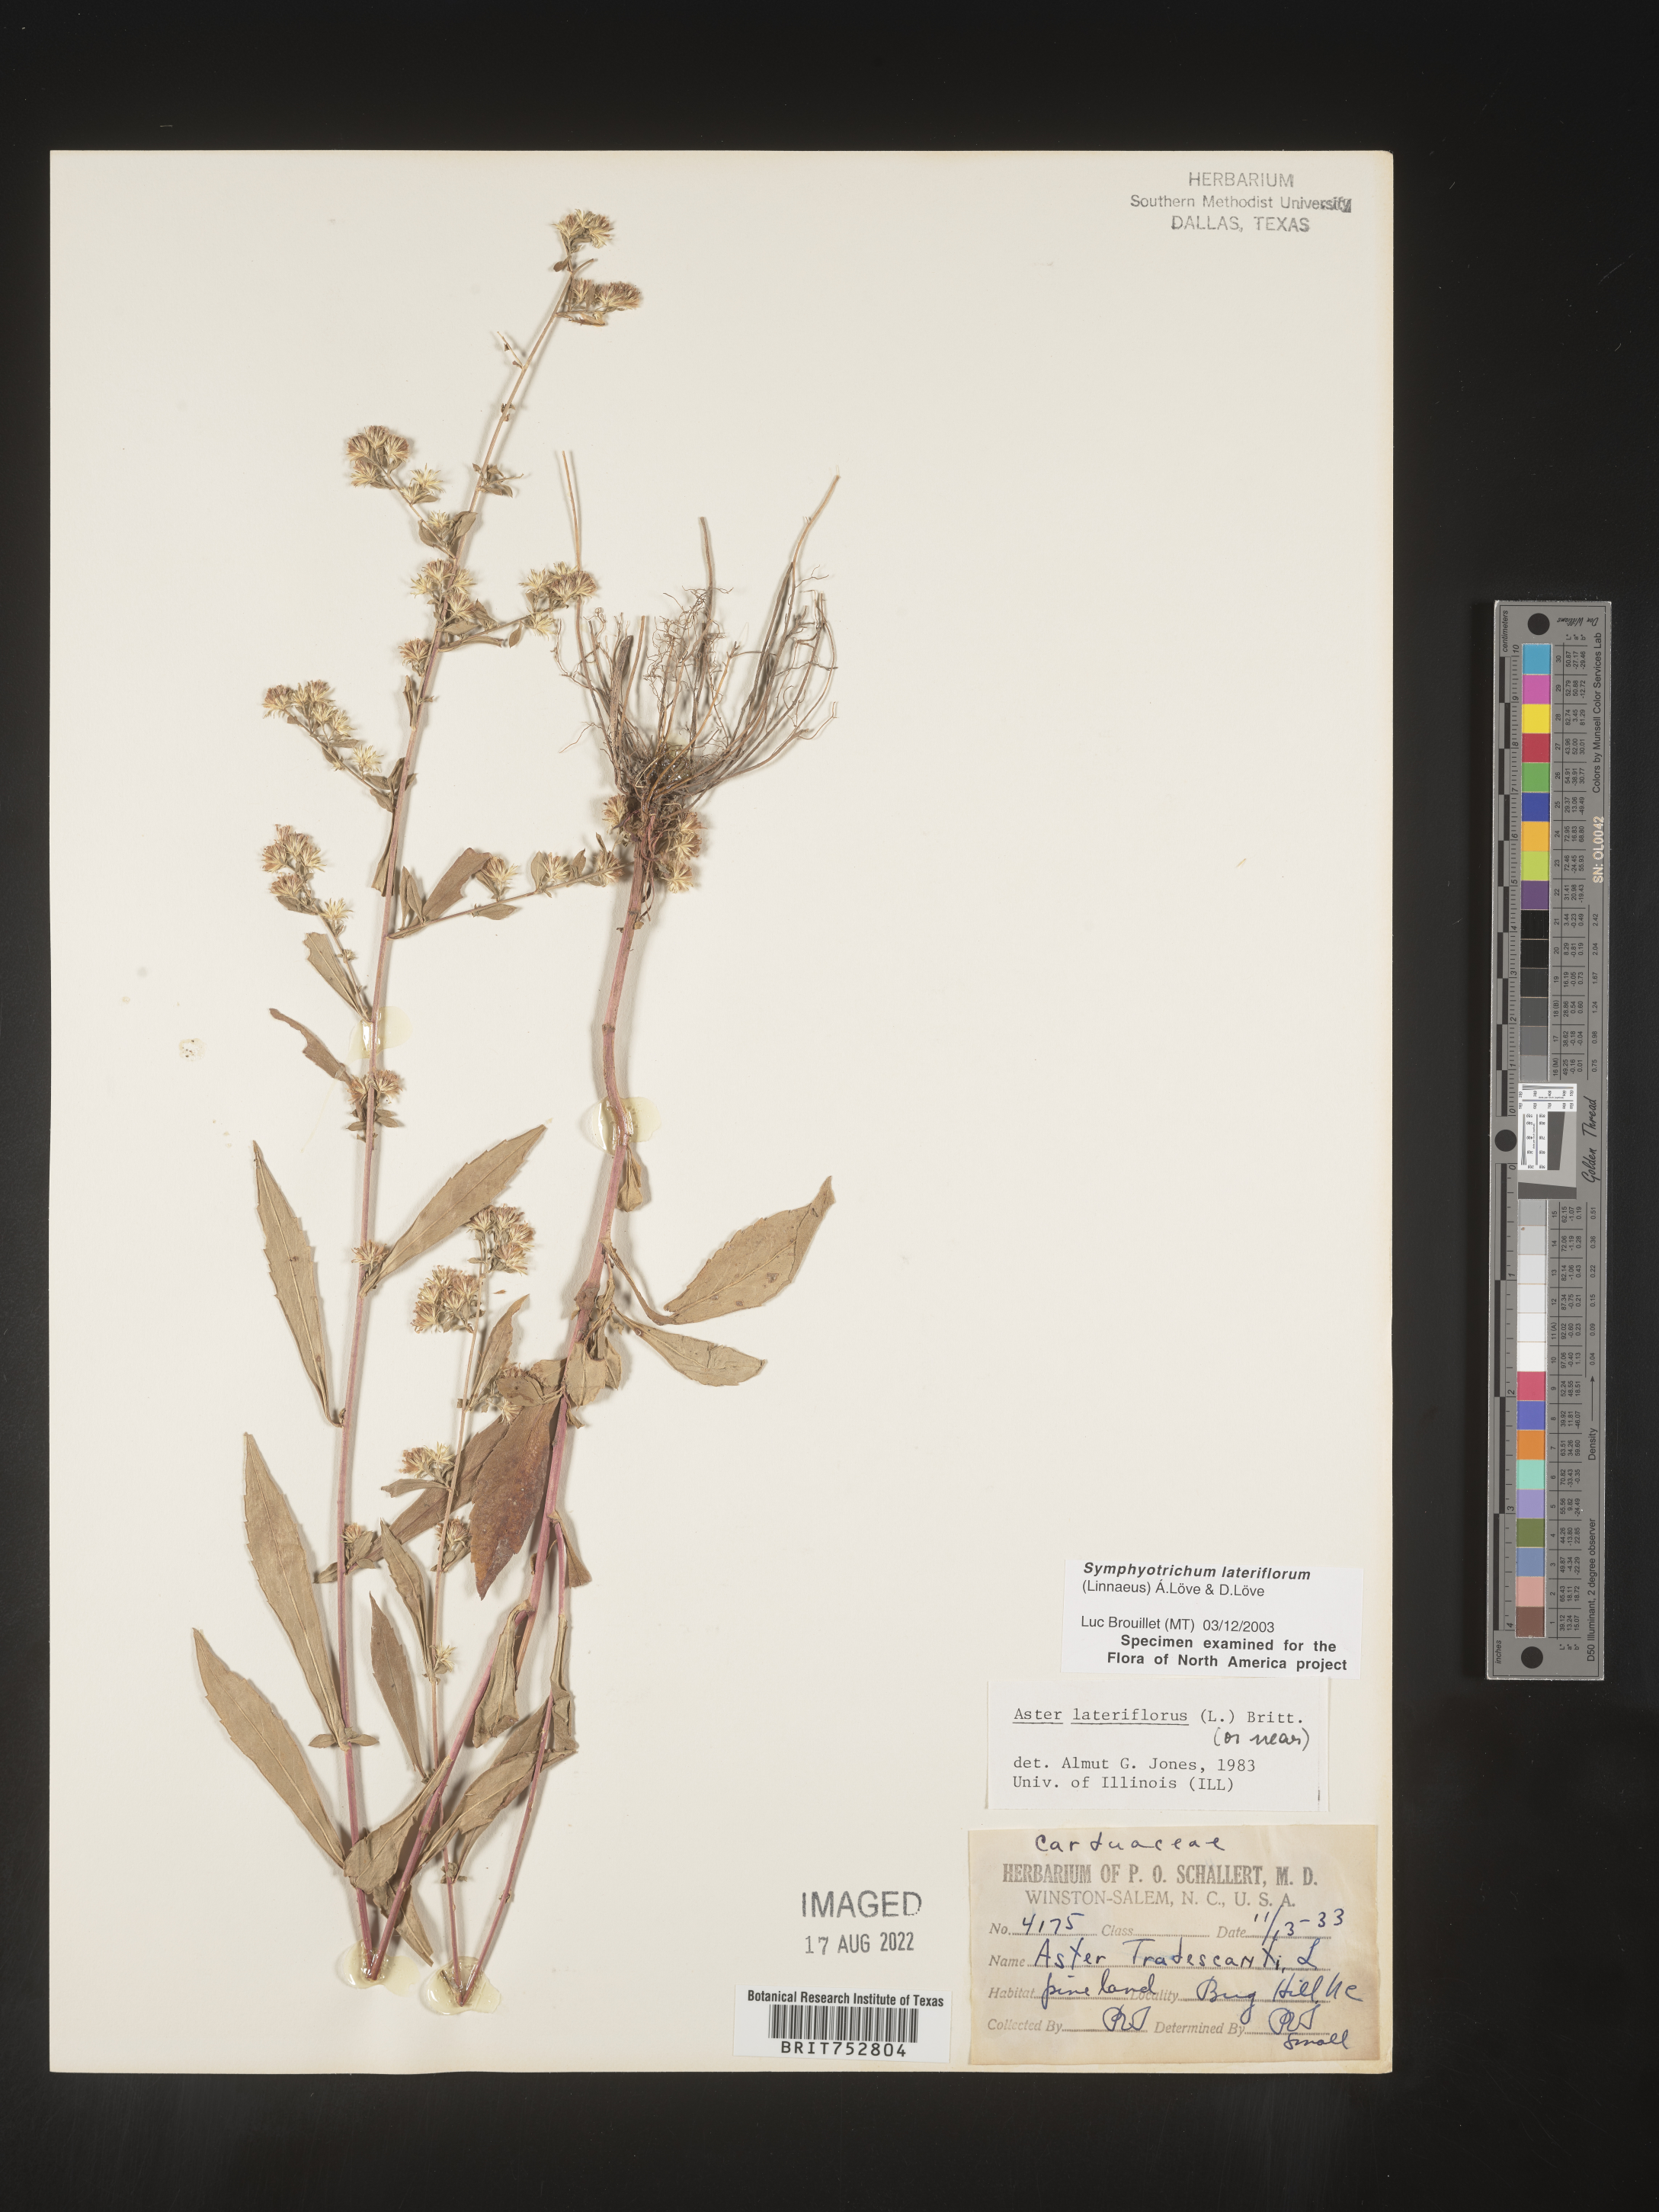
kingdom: Plantae
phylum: Tracheophyta
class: Magnoliopsida
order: Asterales
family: Asteraceae
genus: Symphyotrichum
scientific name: Symphyotrichum lateriflorum
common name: Calico aster
